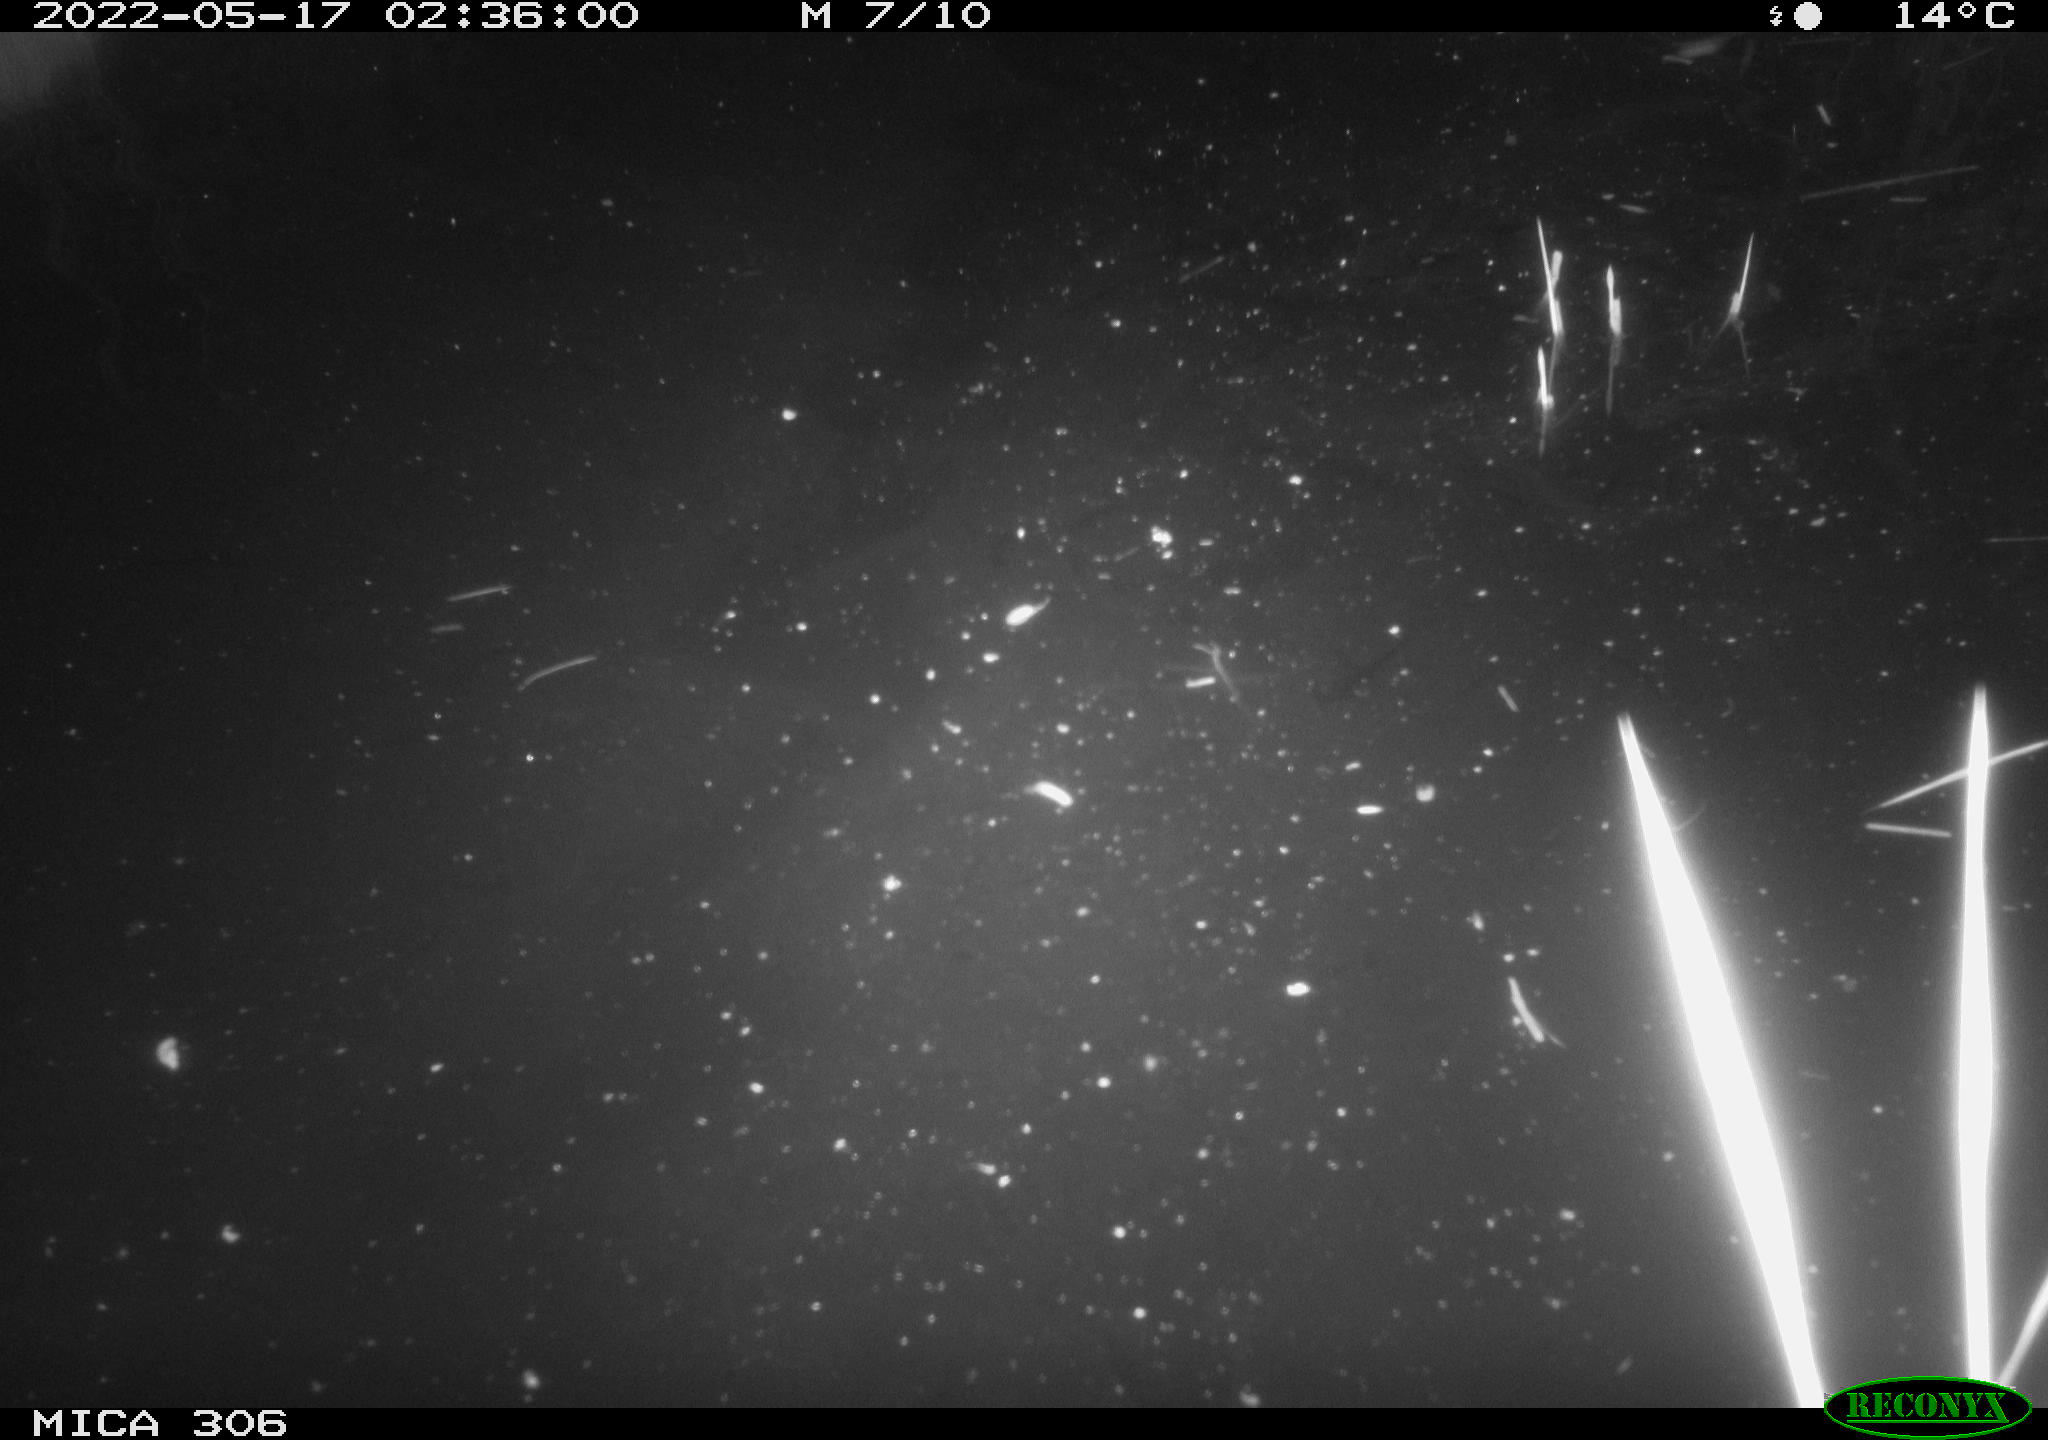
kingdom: Animalia
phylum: Chordata
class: Mammalia
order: Rodentia
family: Cricetidae
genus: Ondatra
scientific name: Ondatra zibethicus
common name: Muskrat
